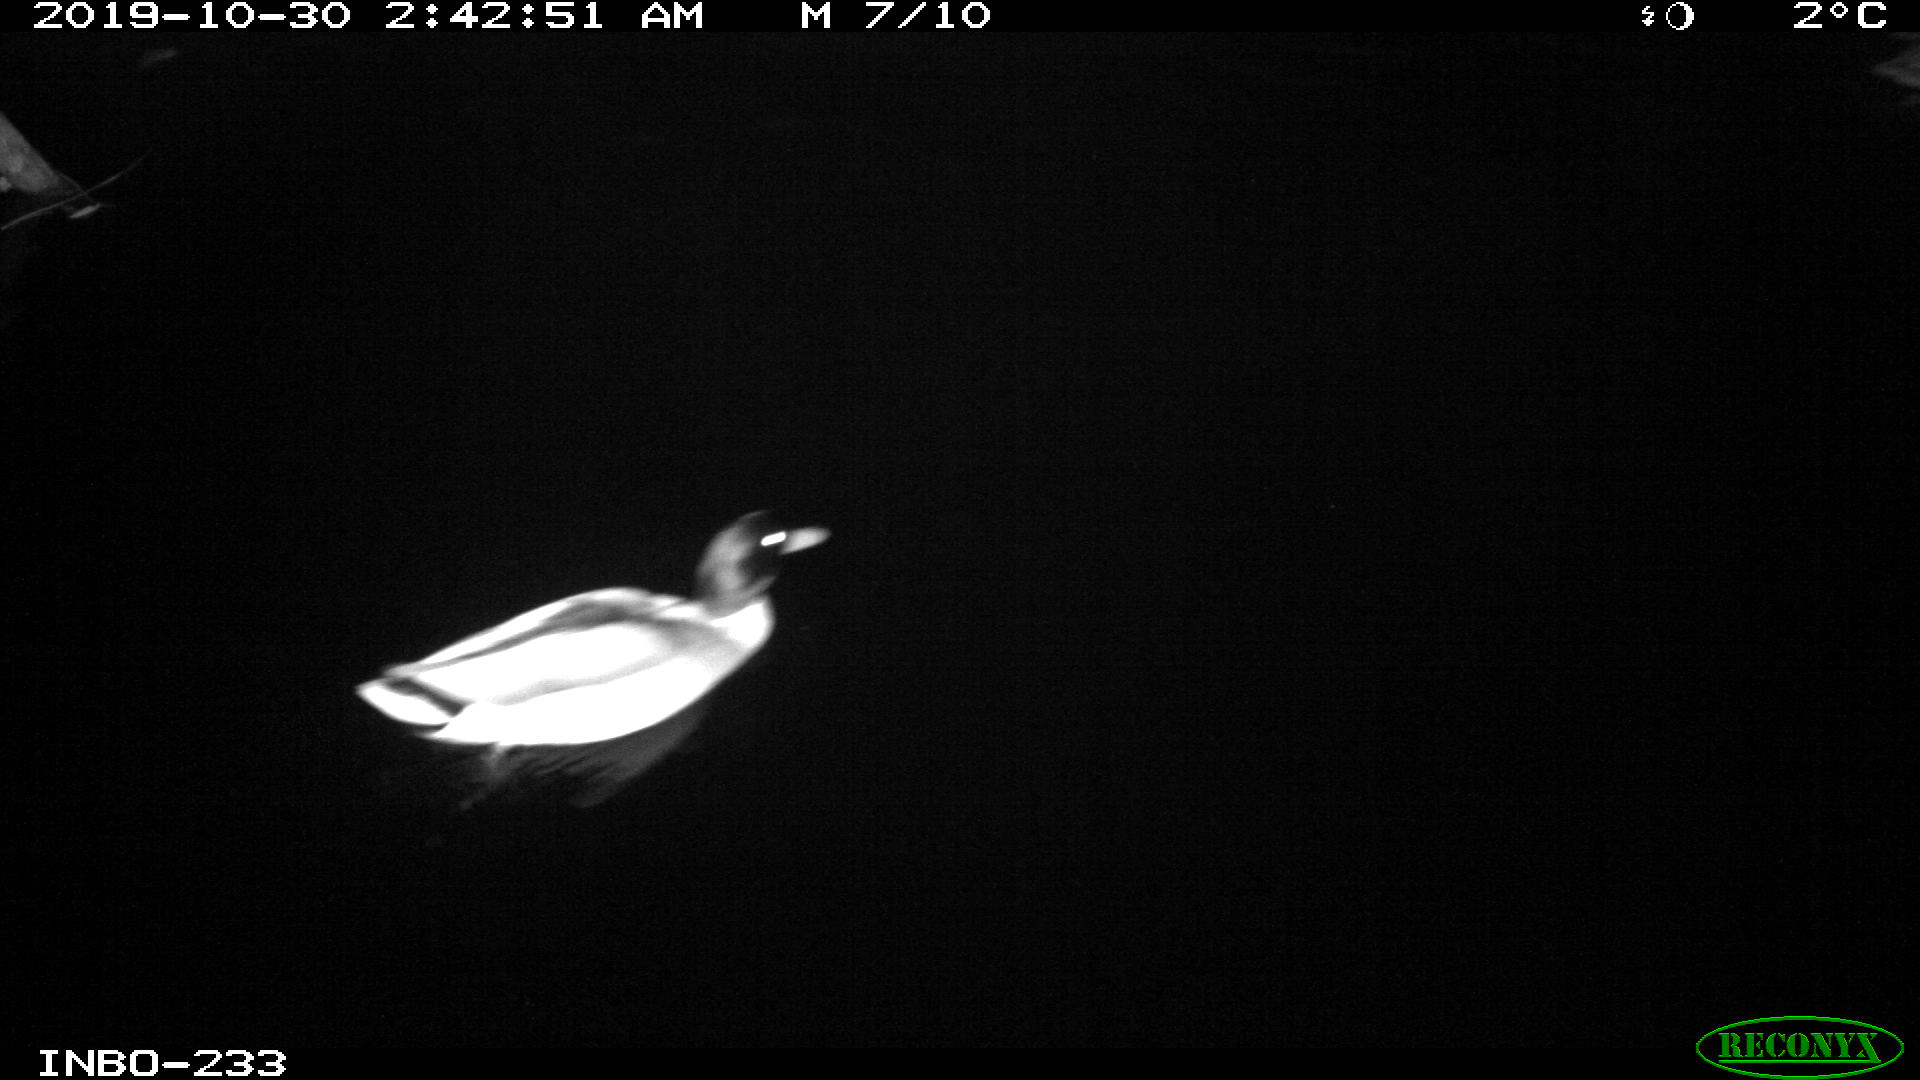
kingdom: Animalia
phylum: Chordata
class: Aves
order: Anseriformes
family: Anatidae
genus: Anas
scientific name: Anas platyrhynchos
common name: Mallard
